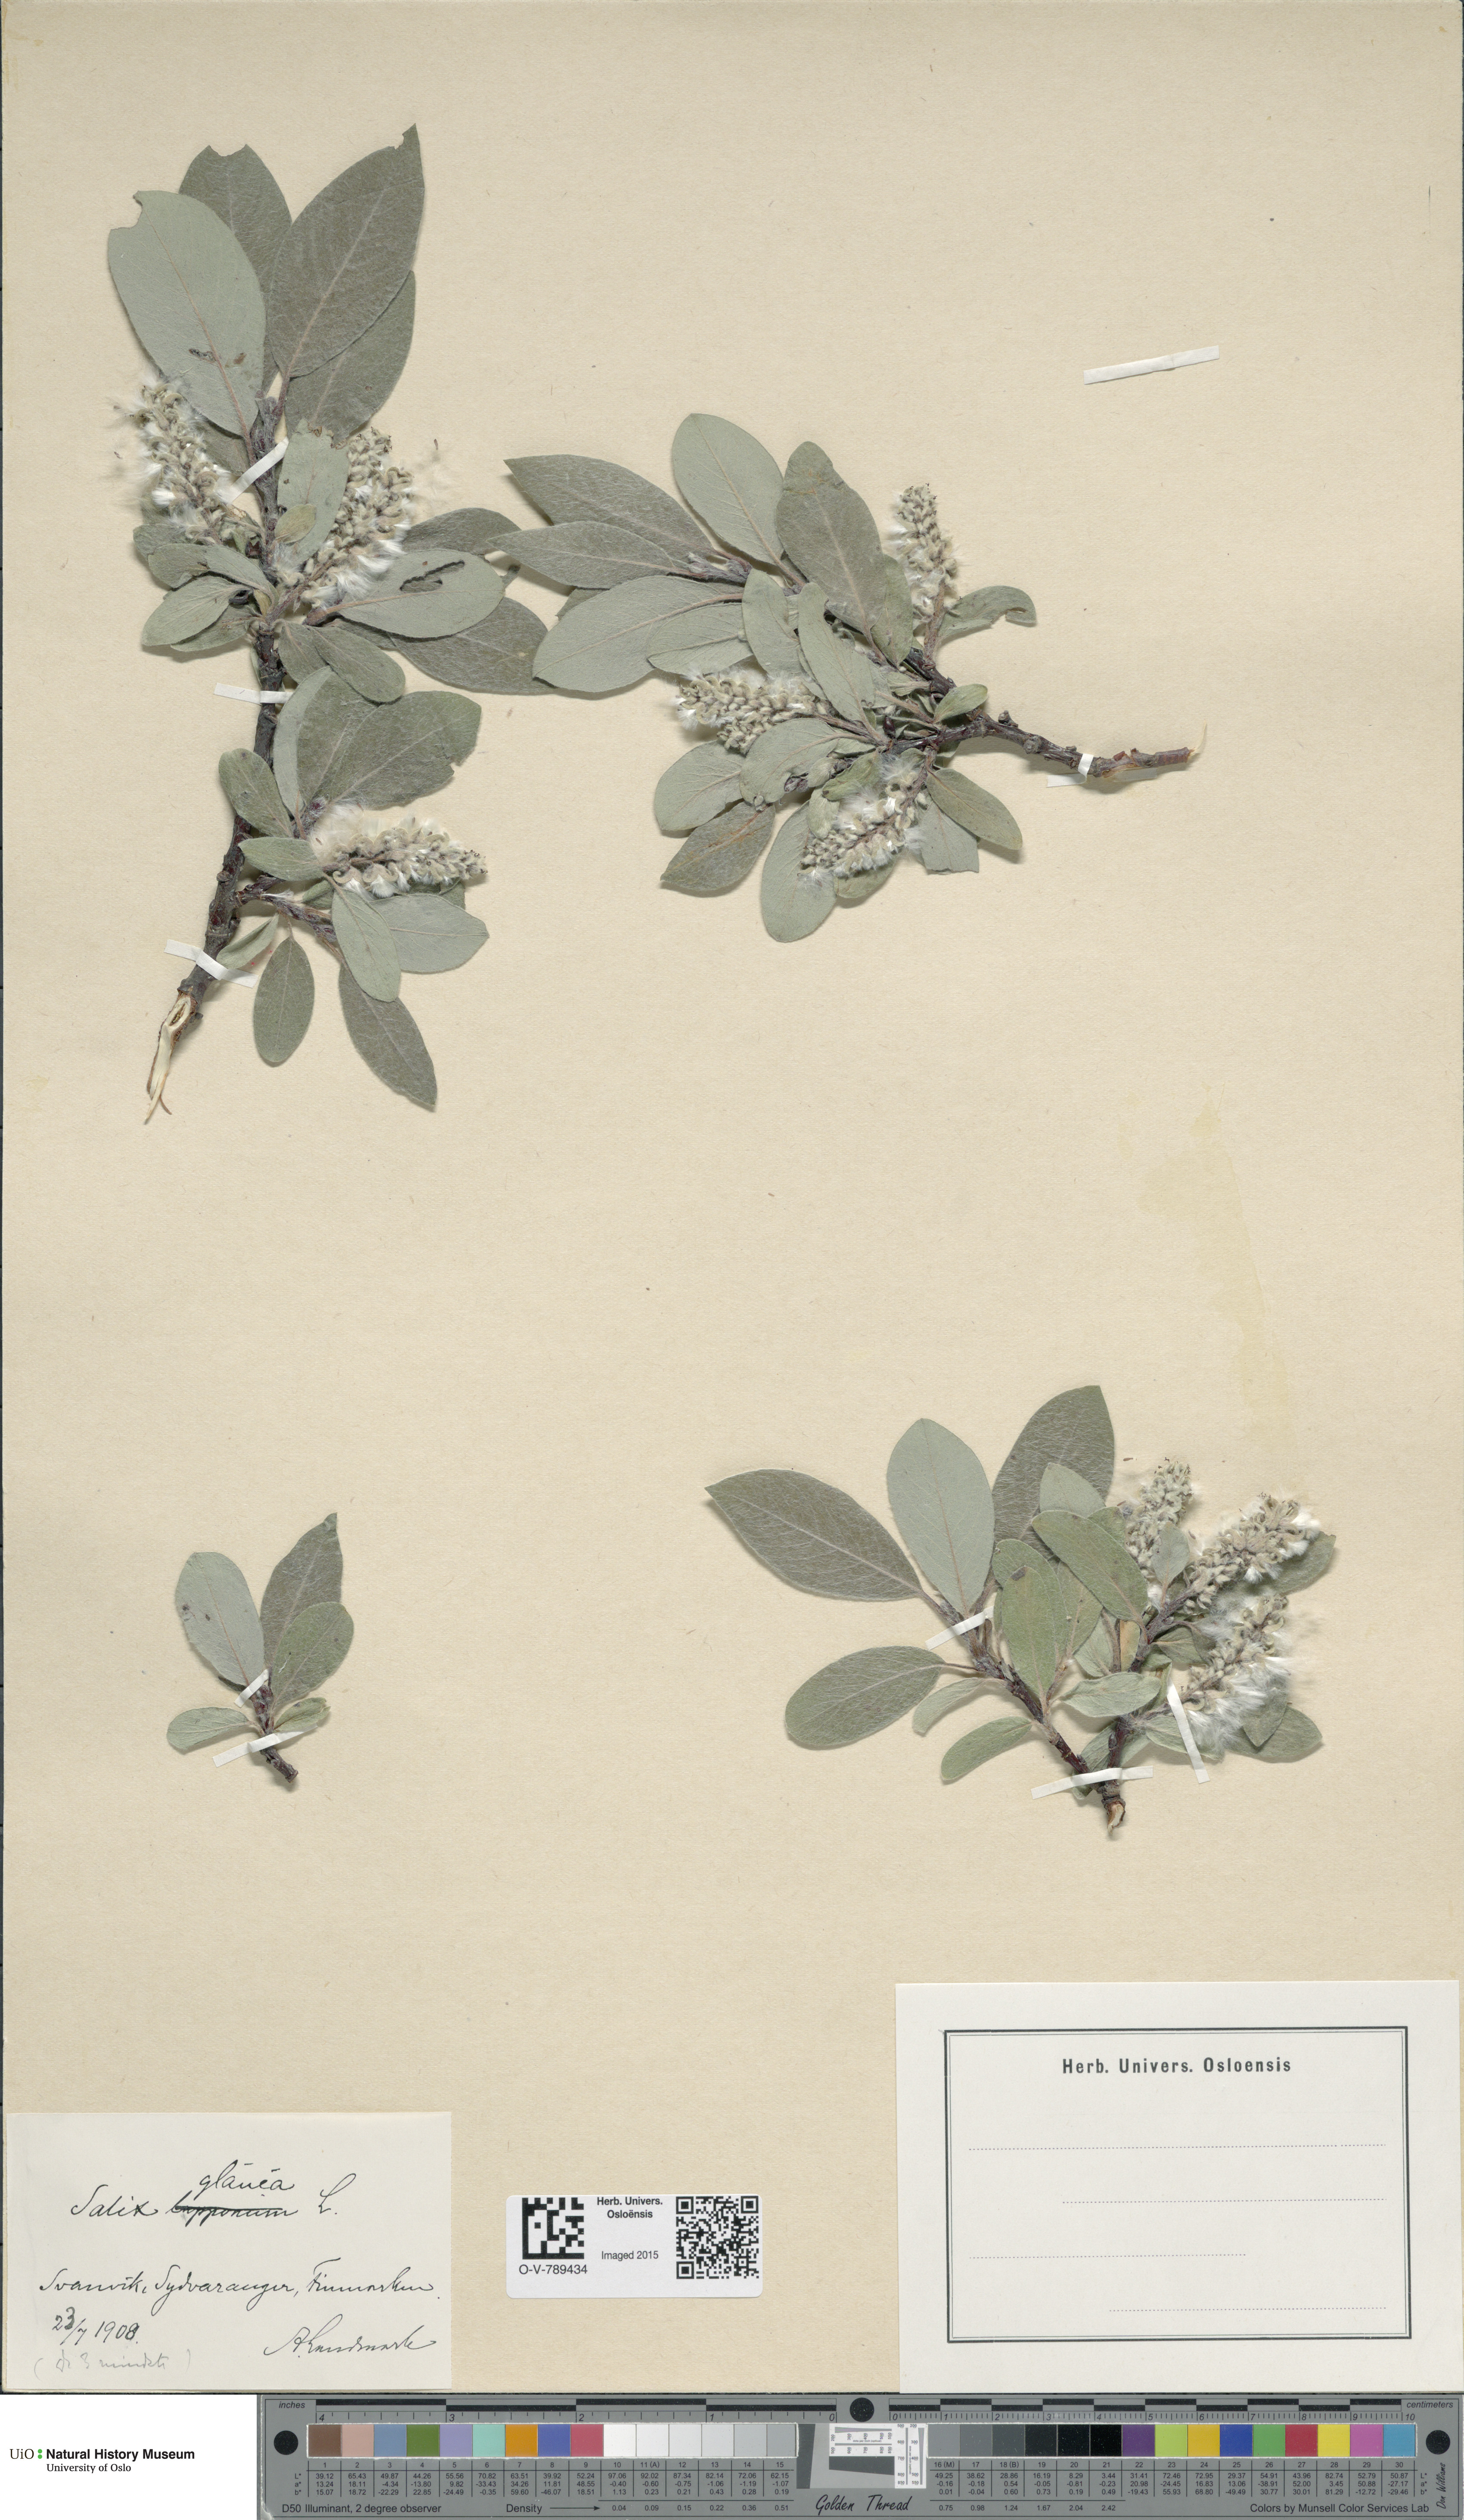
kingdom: Plantae
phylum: Tracheophyta
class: Magnoliopsida
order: Malpighiales
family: Salicaceae
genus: Salix
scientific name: Salix glauca
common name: Glaucous willow
